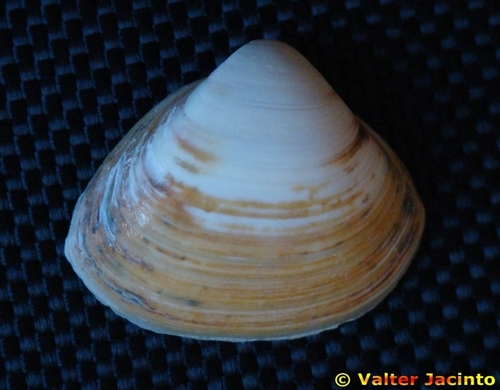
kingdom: Animalia
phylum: Mollusca
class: Bivalvia
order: Venerida
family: Mactridae
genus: Spisula
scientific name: Spisula subtruncata
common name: Cut trough shell
